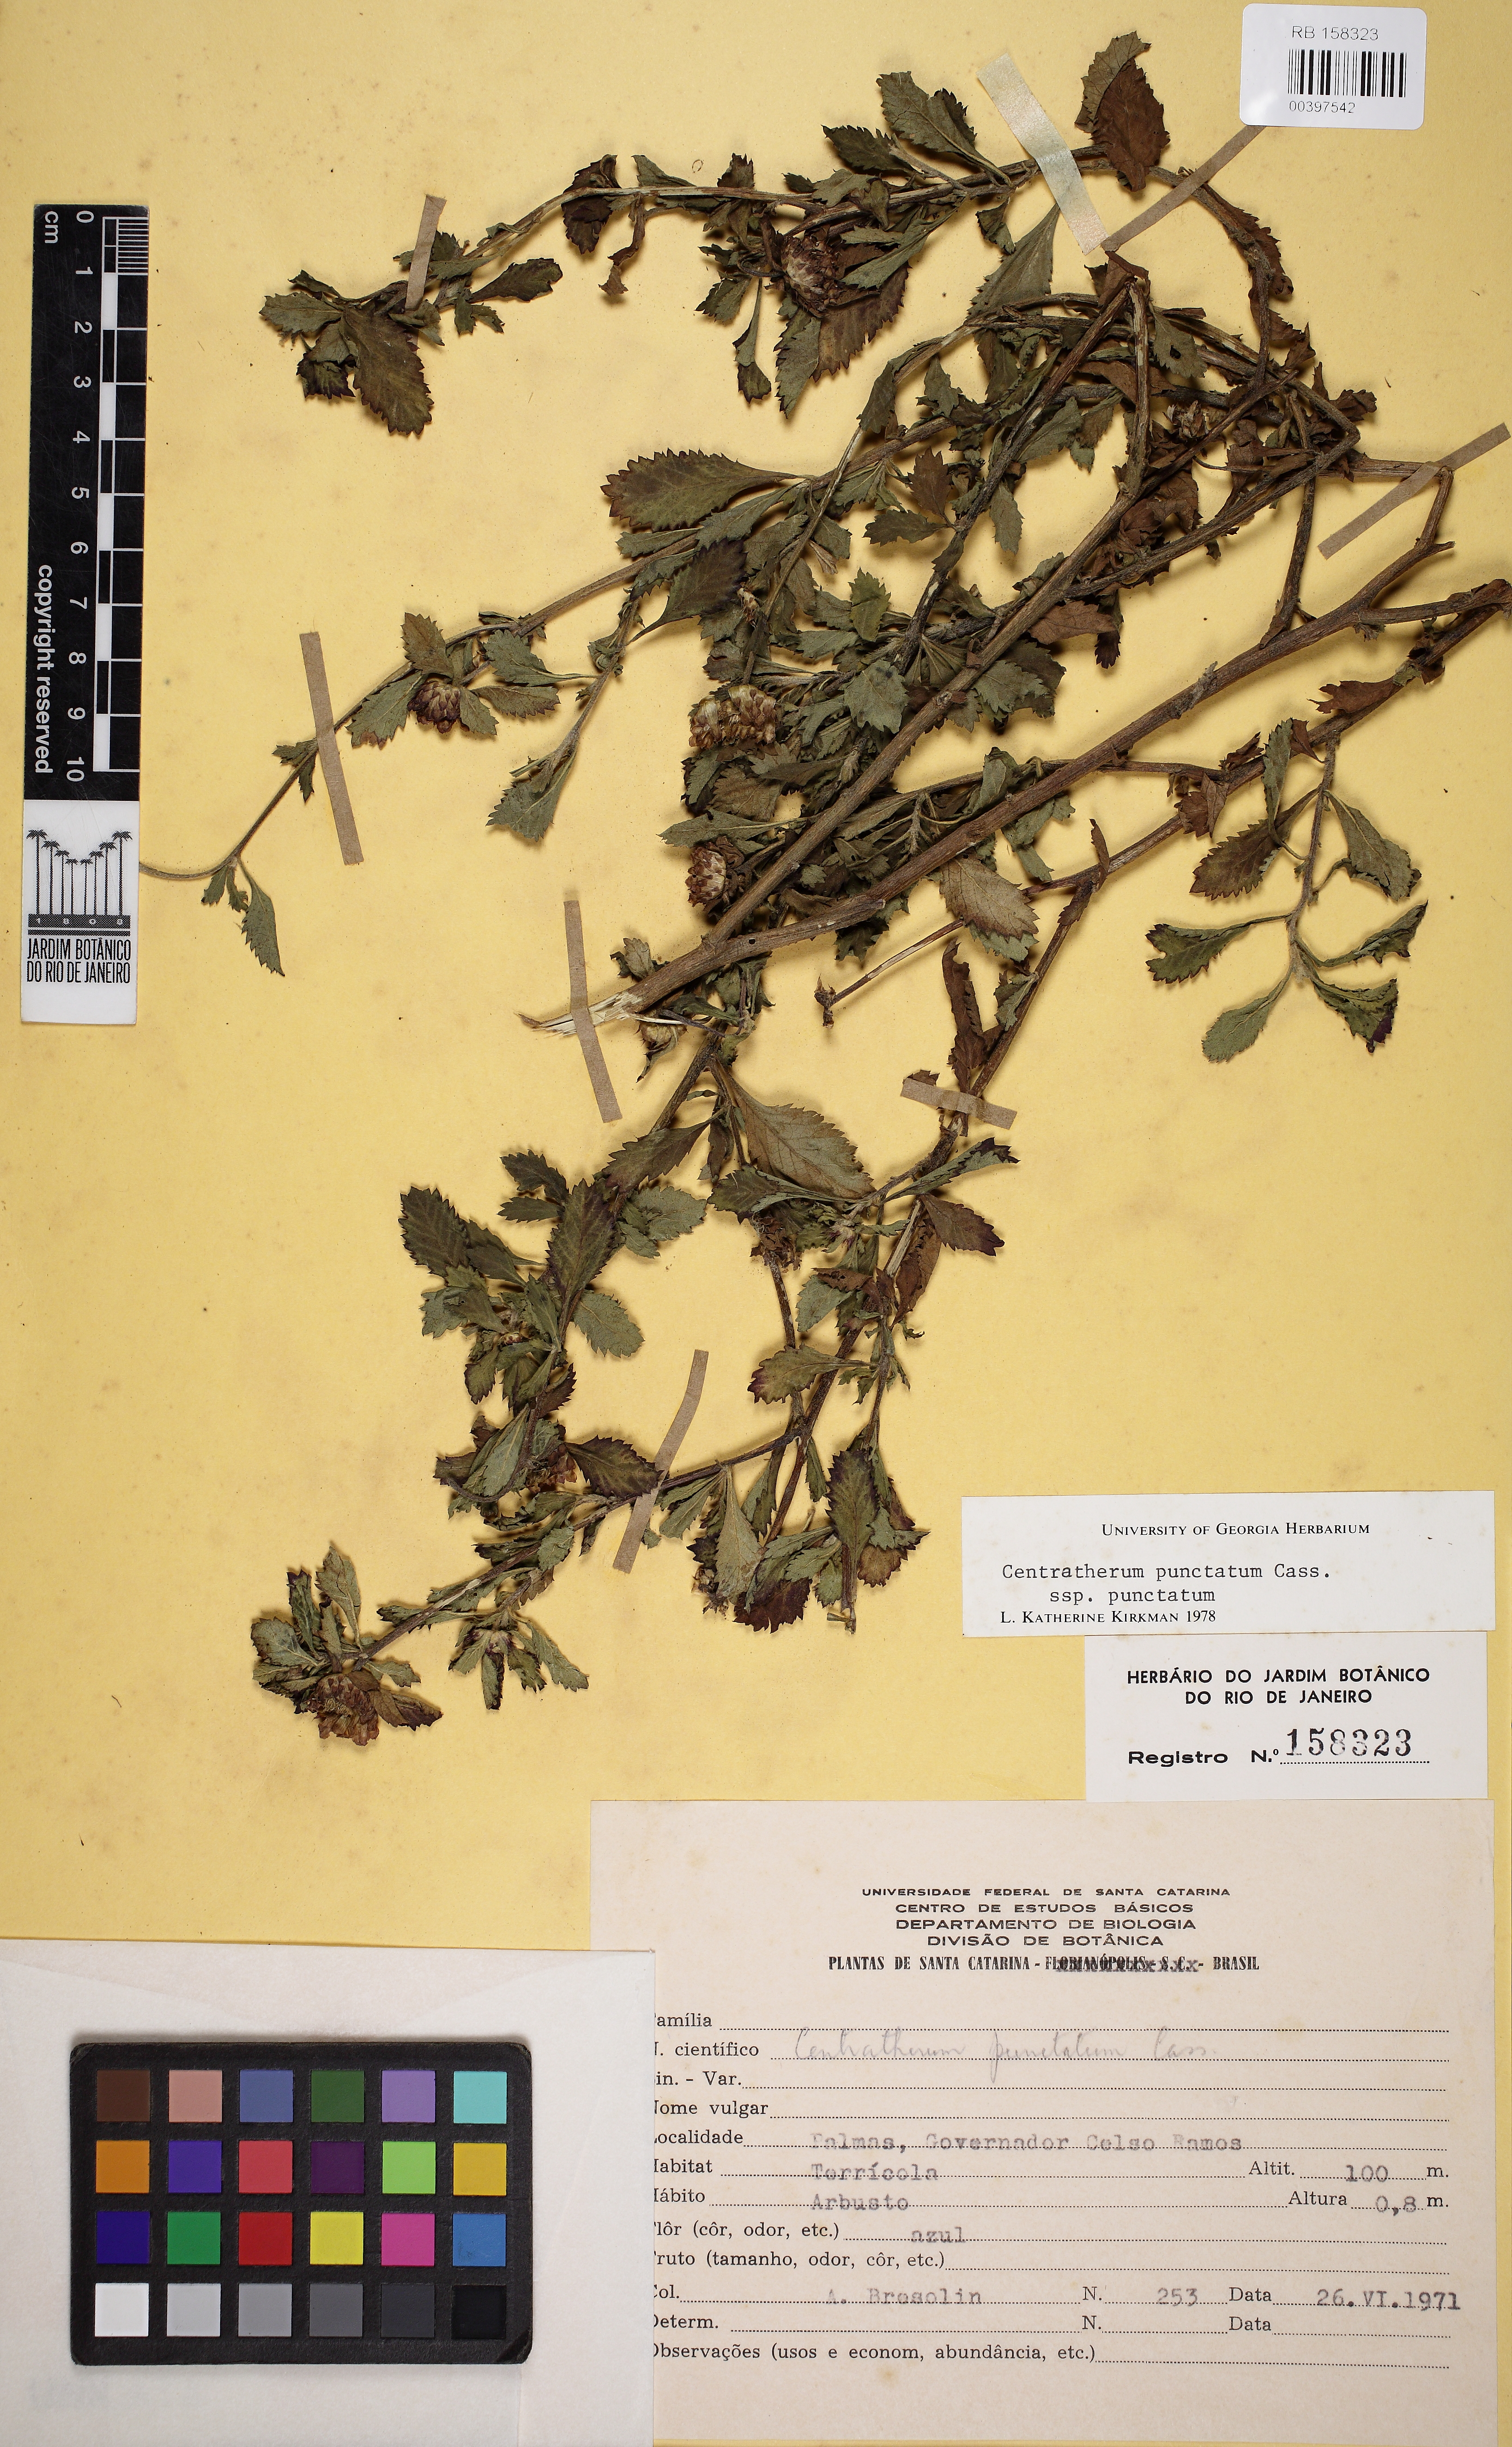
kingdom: Plantae
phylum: Tracheophyta
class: Magnoliopsida
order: Asterales
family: Asteraceae
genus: Centratherum
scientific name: Centratherum punctatum
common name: Larkdaisy
